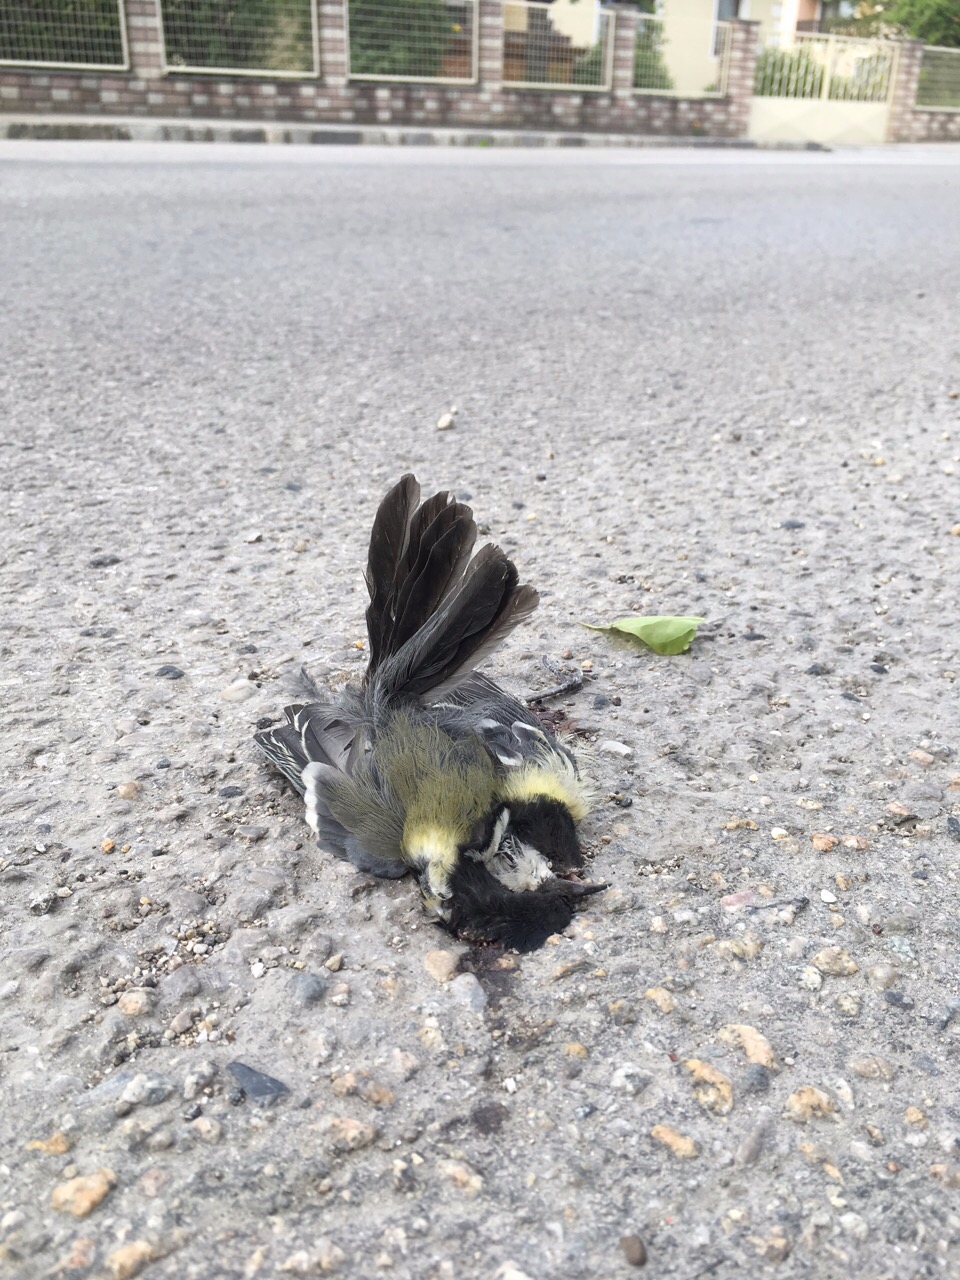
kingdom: Animalia
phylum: Chordata
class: Aves
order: Passeriformes
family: Paridae
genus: Parus
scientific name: Parus major
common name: Great tit
